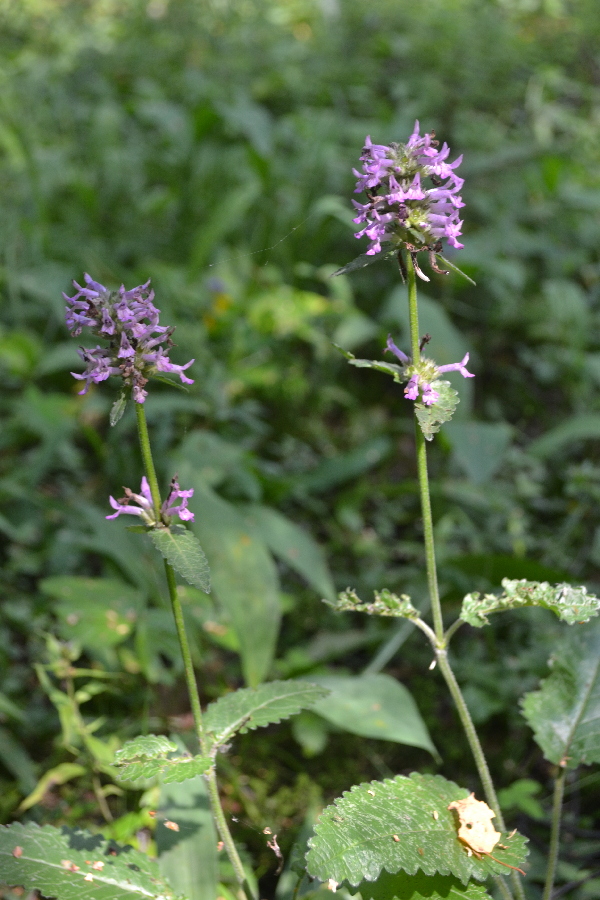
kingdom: Plantae
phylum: Tracheophyta
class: Magnoliopsida
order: Lamiales
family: Lamiaceae
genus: Betonica
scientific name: Betonica officinalis
